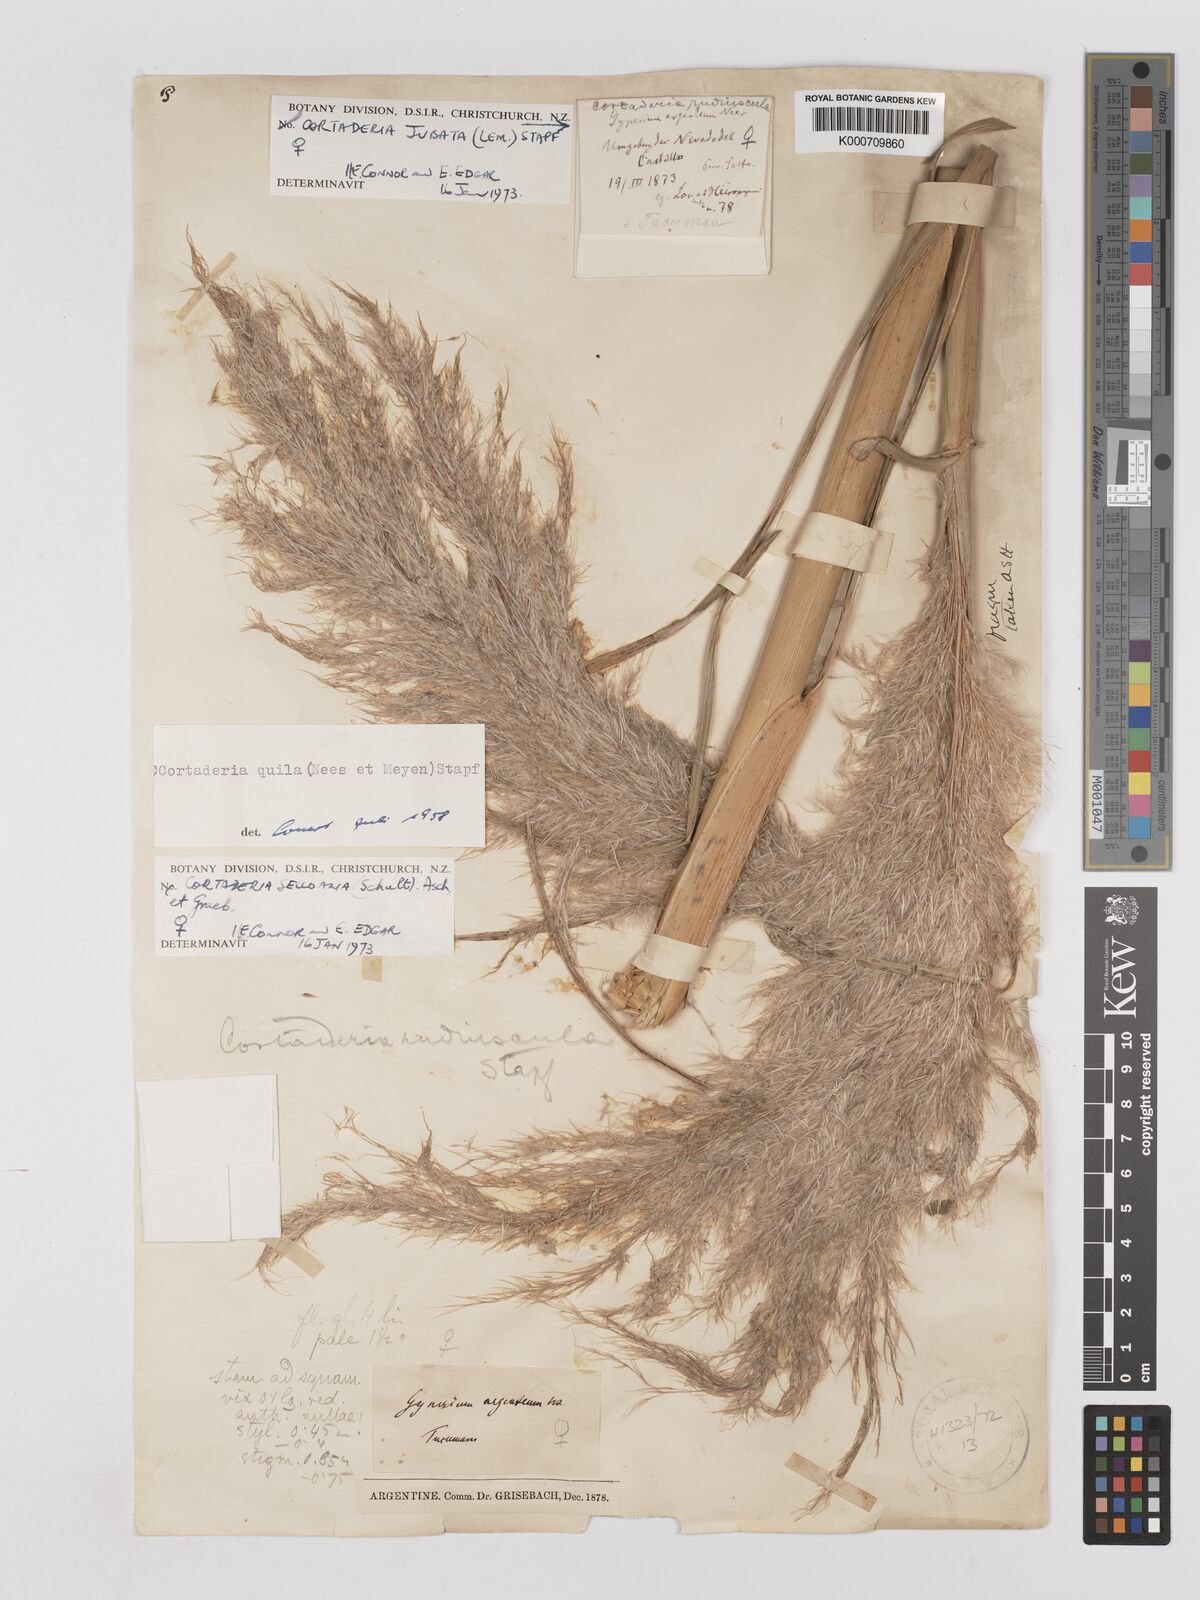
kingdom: Plantae
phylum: Tracheophyta
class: Liliopsida
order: Poales
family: Poaceae
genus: Cortaderia
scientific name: Cortaderia selloana
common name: Uruguayan pampas grass
